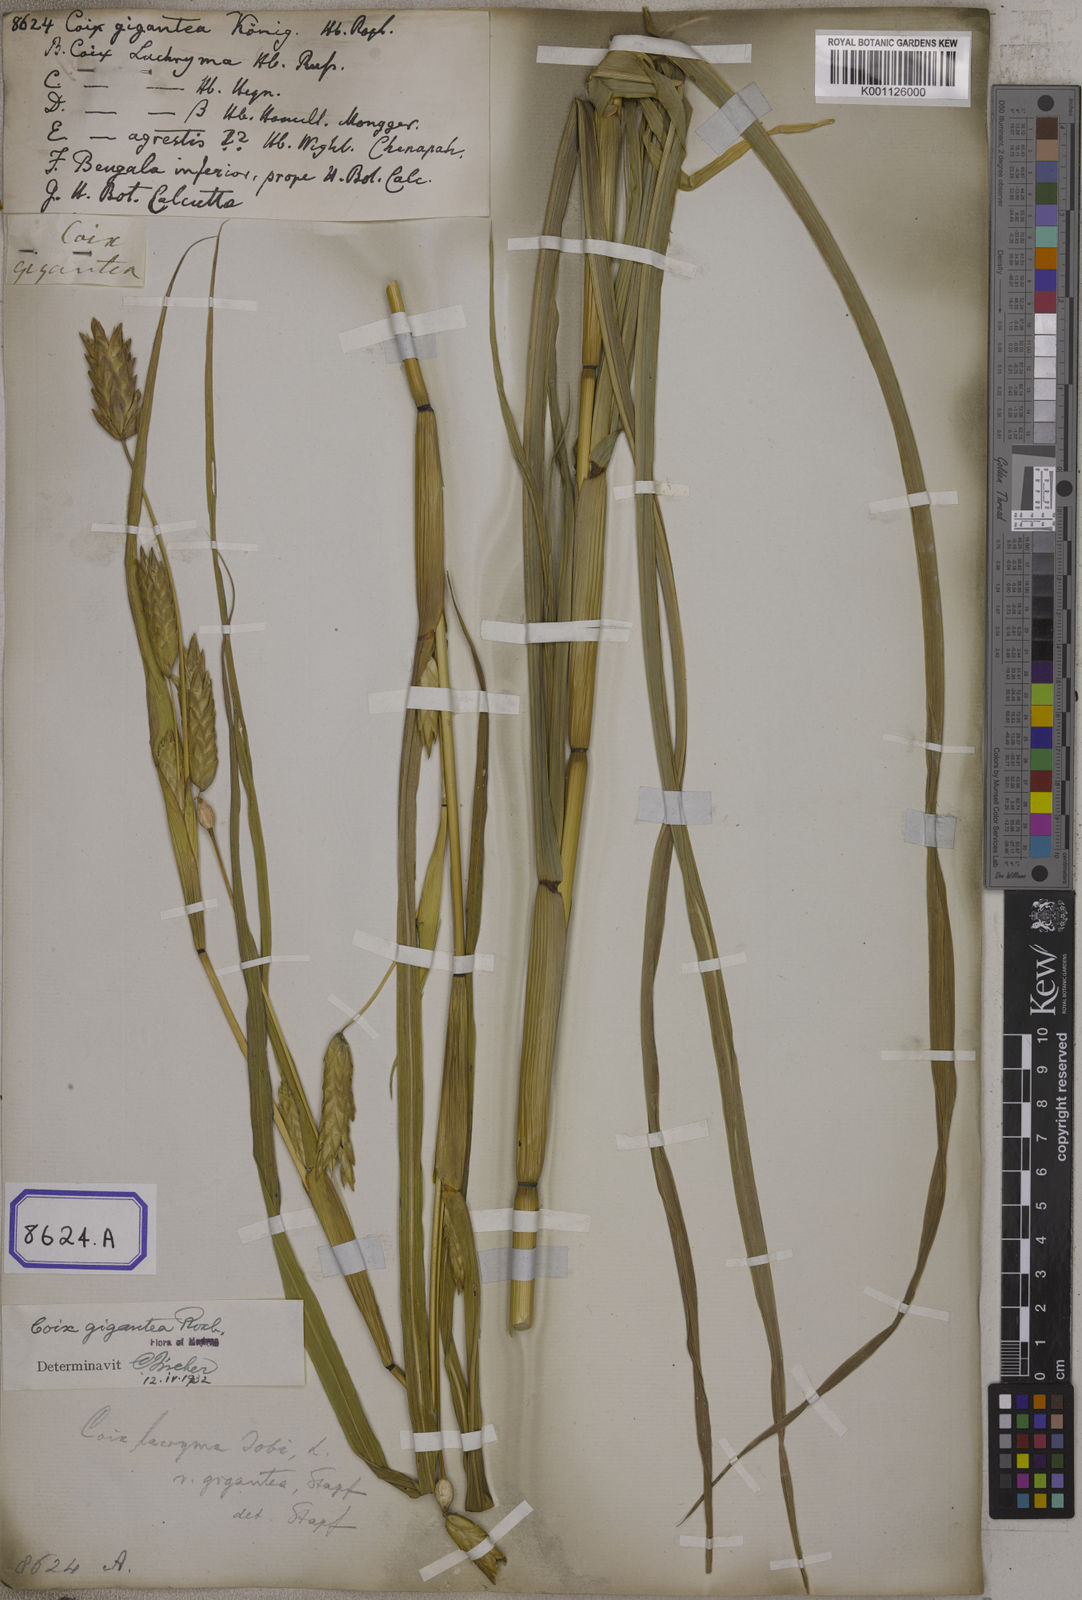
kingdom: Plantae
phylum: Tracheophyta
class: Liliopsida
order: Poales
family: Poaceae
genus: Polytoca
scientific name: Polytoca gigantea
